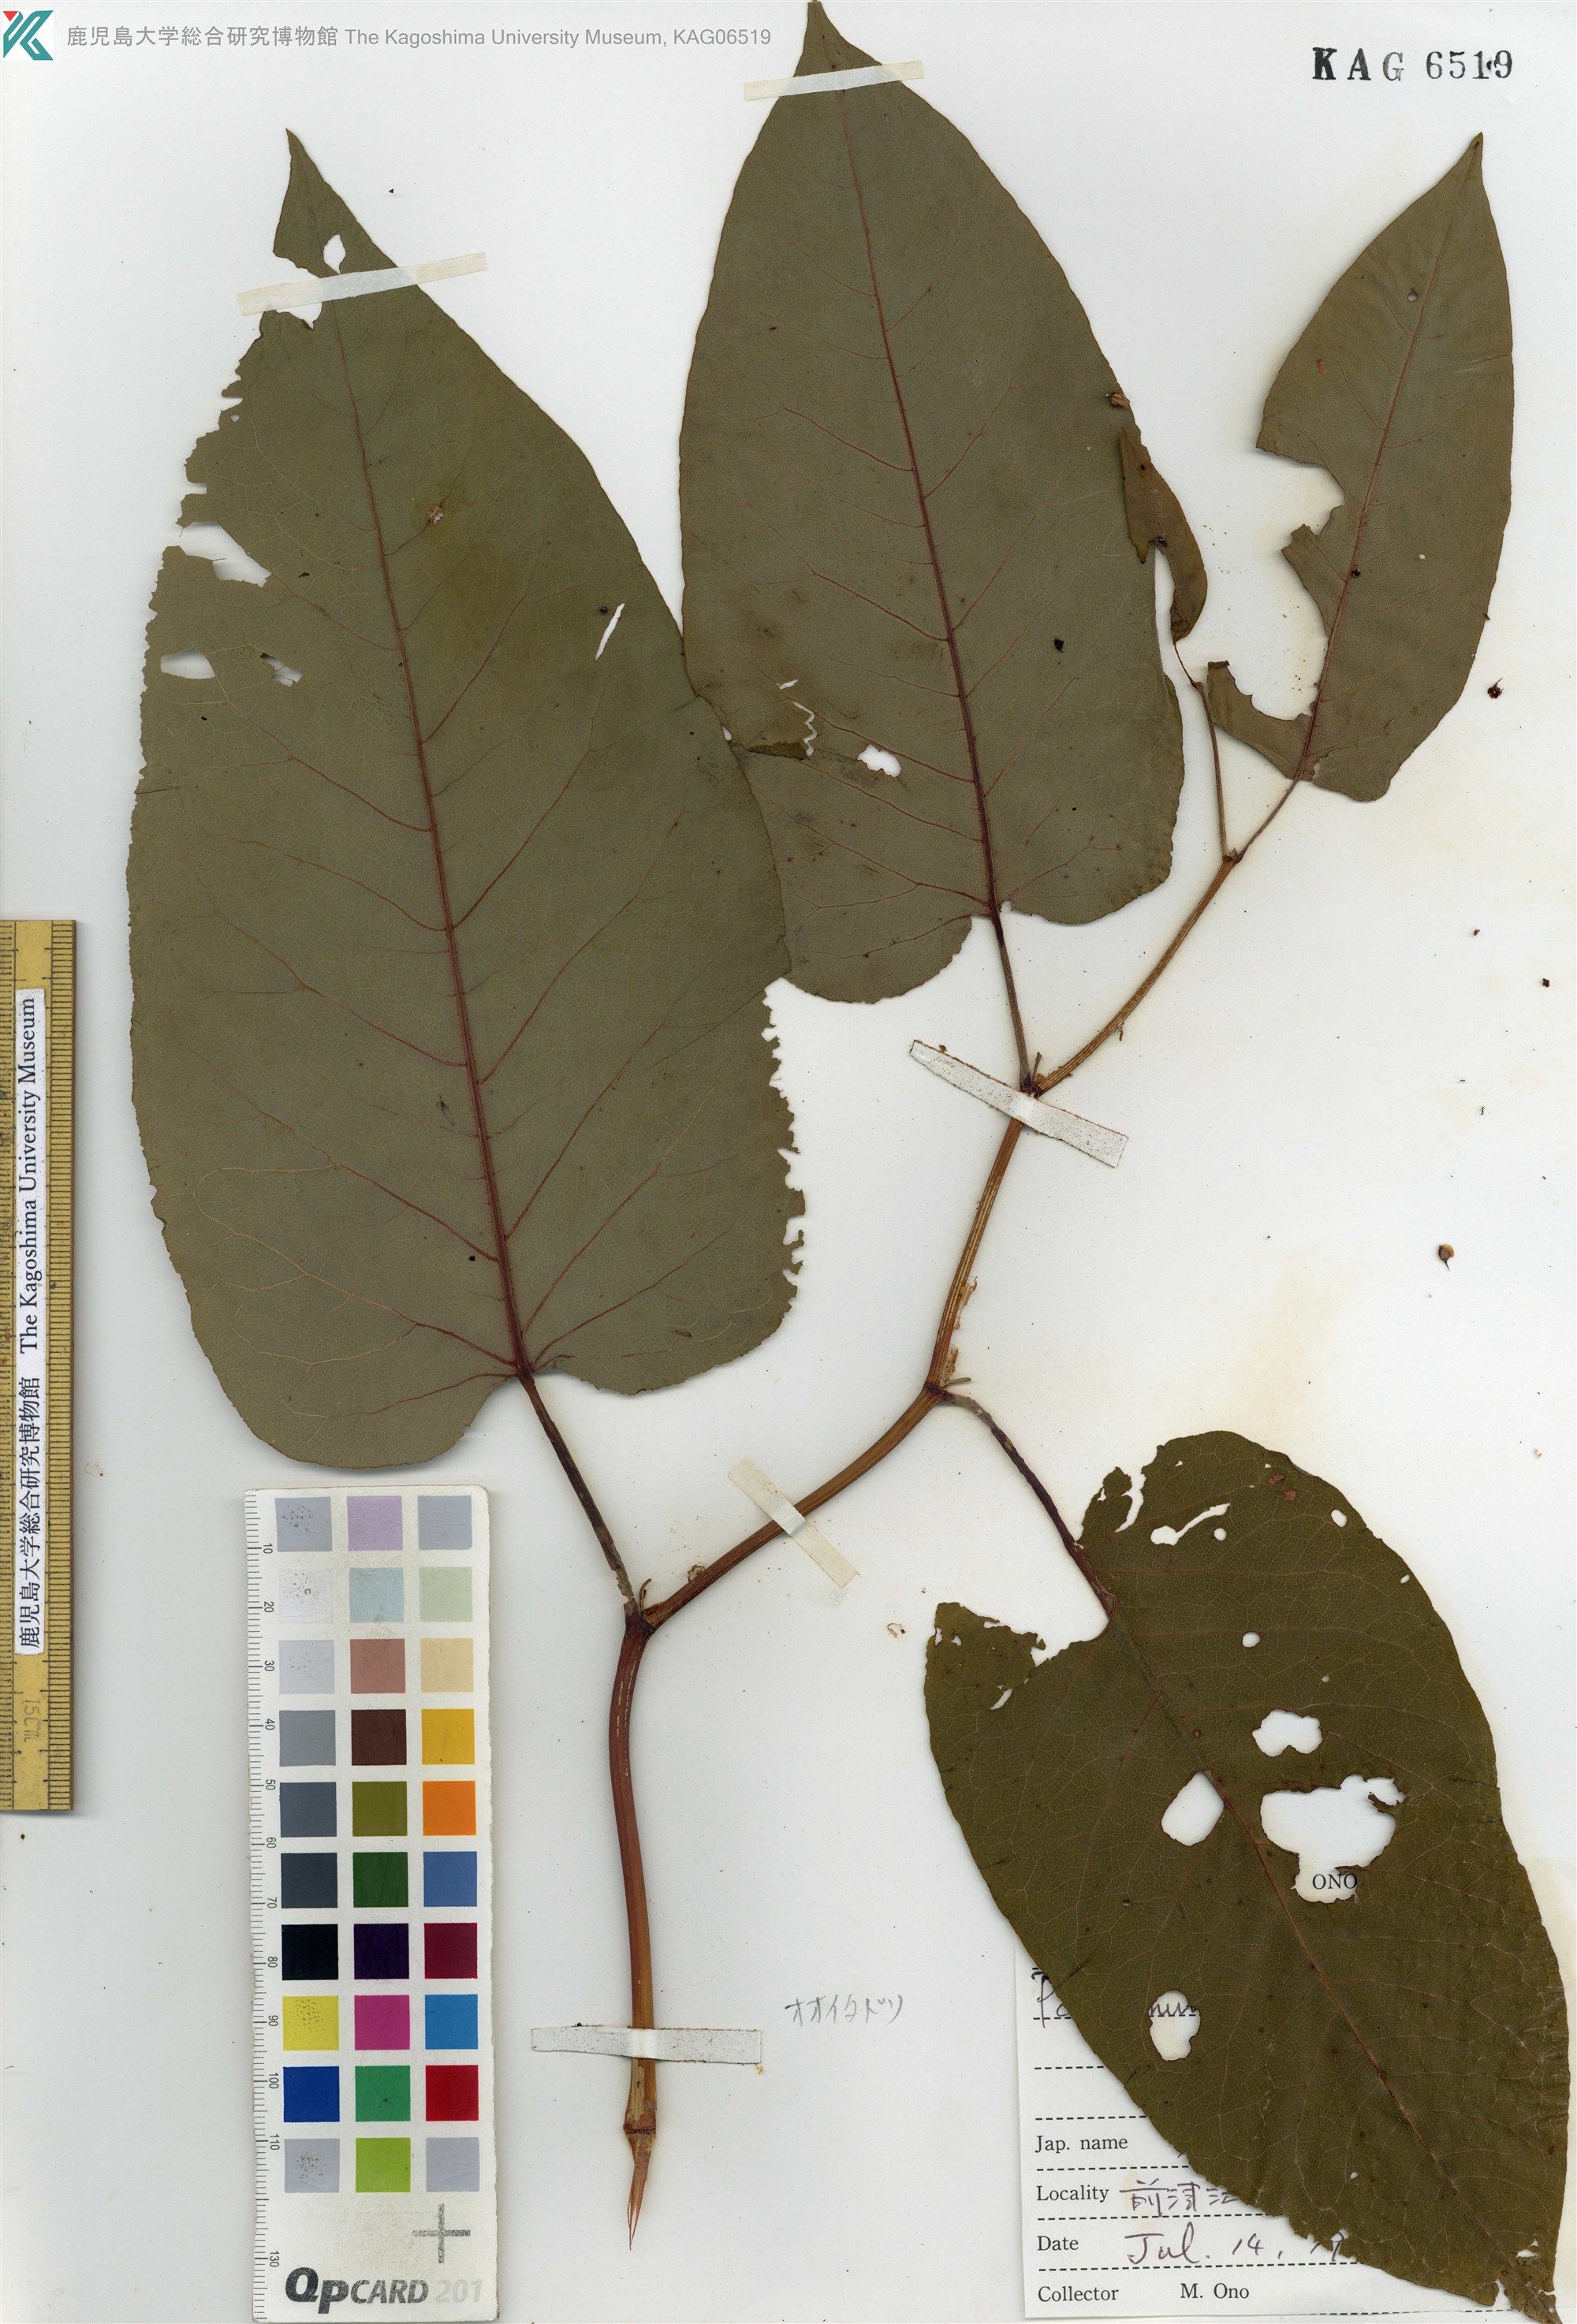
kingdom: Plantae
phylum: Tracheophyta
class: Magnoliopsida
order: Caryophyllales
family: Polygonaceae
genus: Reynoutria
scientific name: Reynoutria sachalinensis
